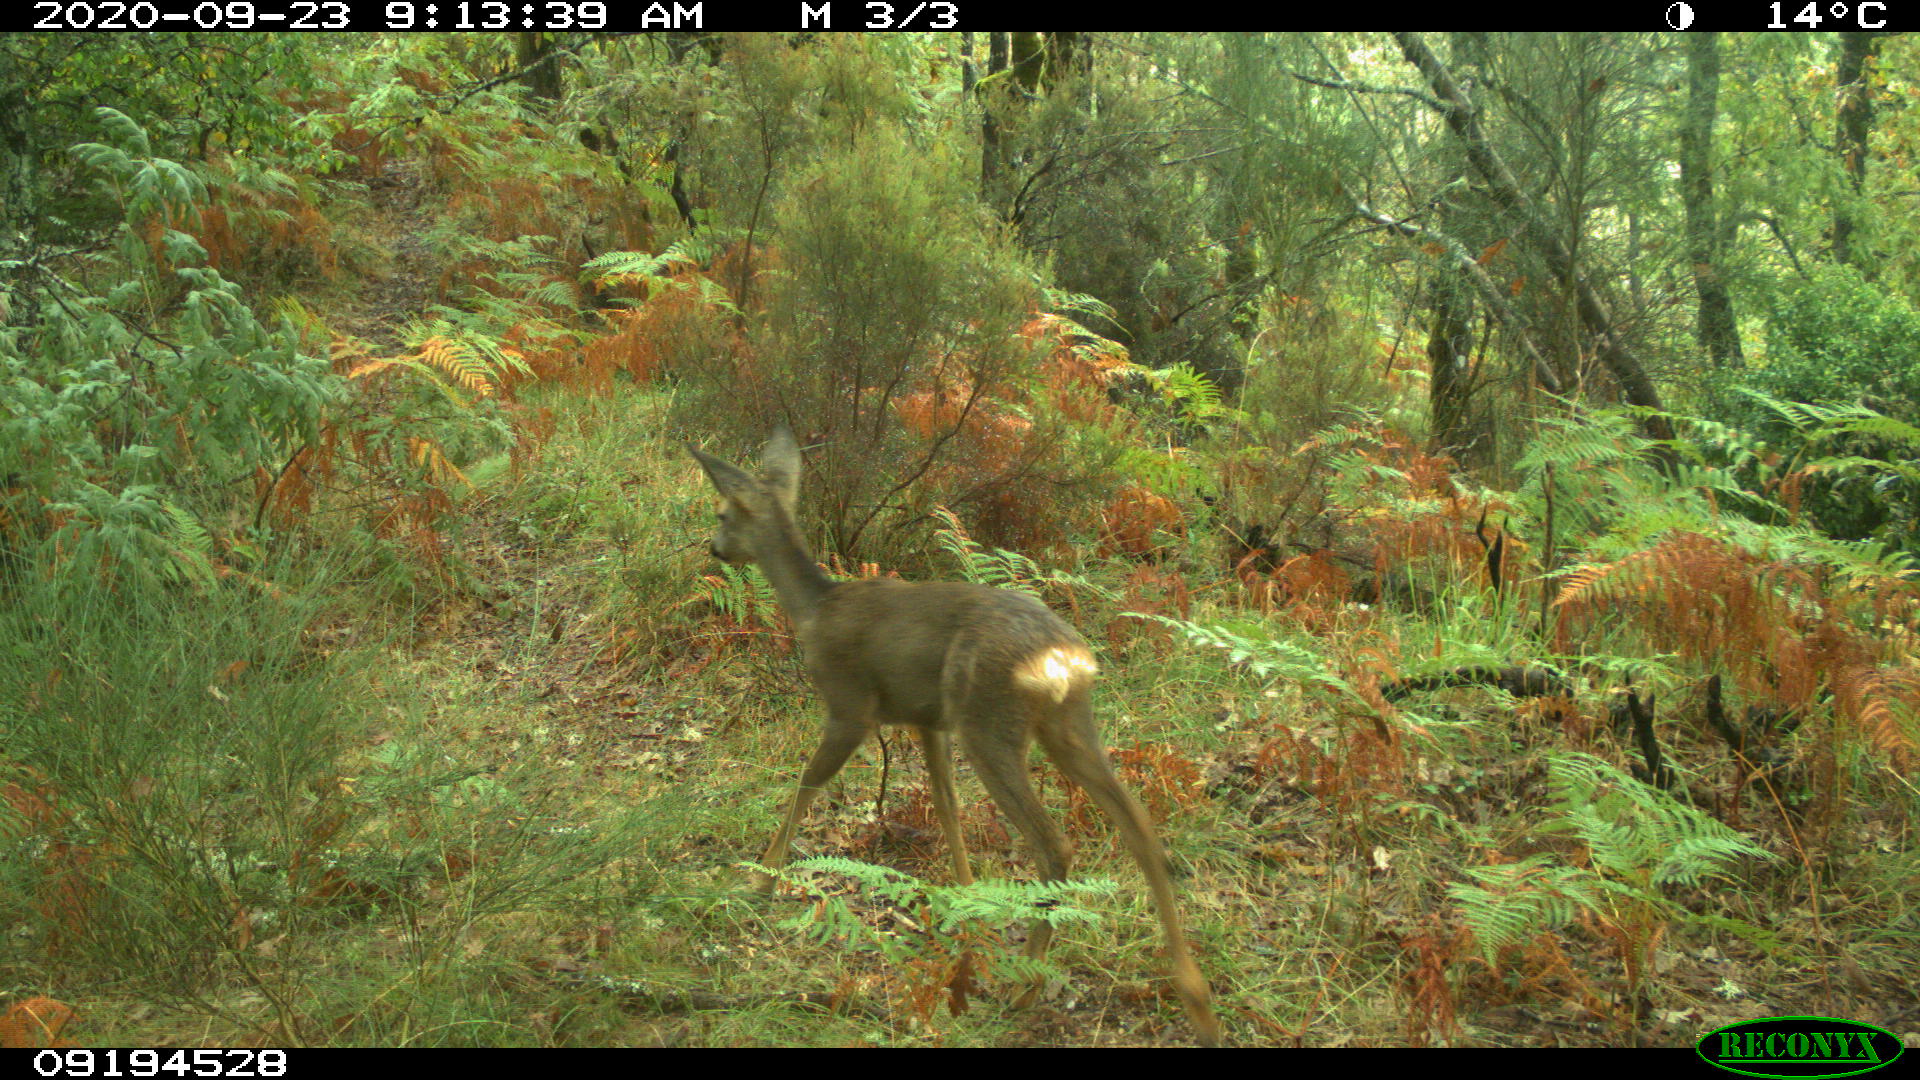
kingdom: Animalia
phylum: Chordata
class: Mammalia
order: Artiodactyla
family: Cervidae
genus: Capreolus
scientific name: Capreolus capreolus
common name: Western roe deer
